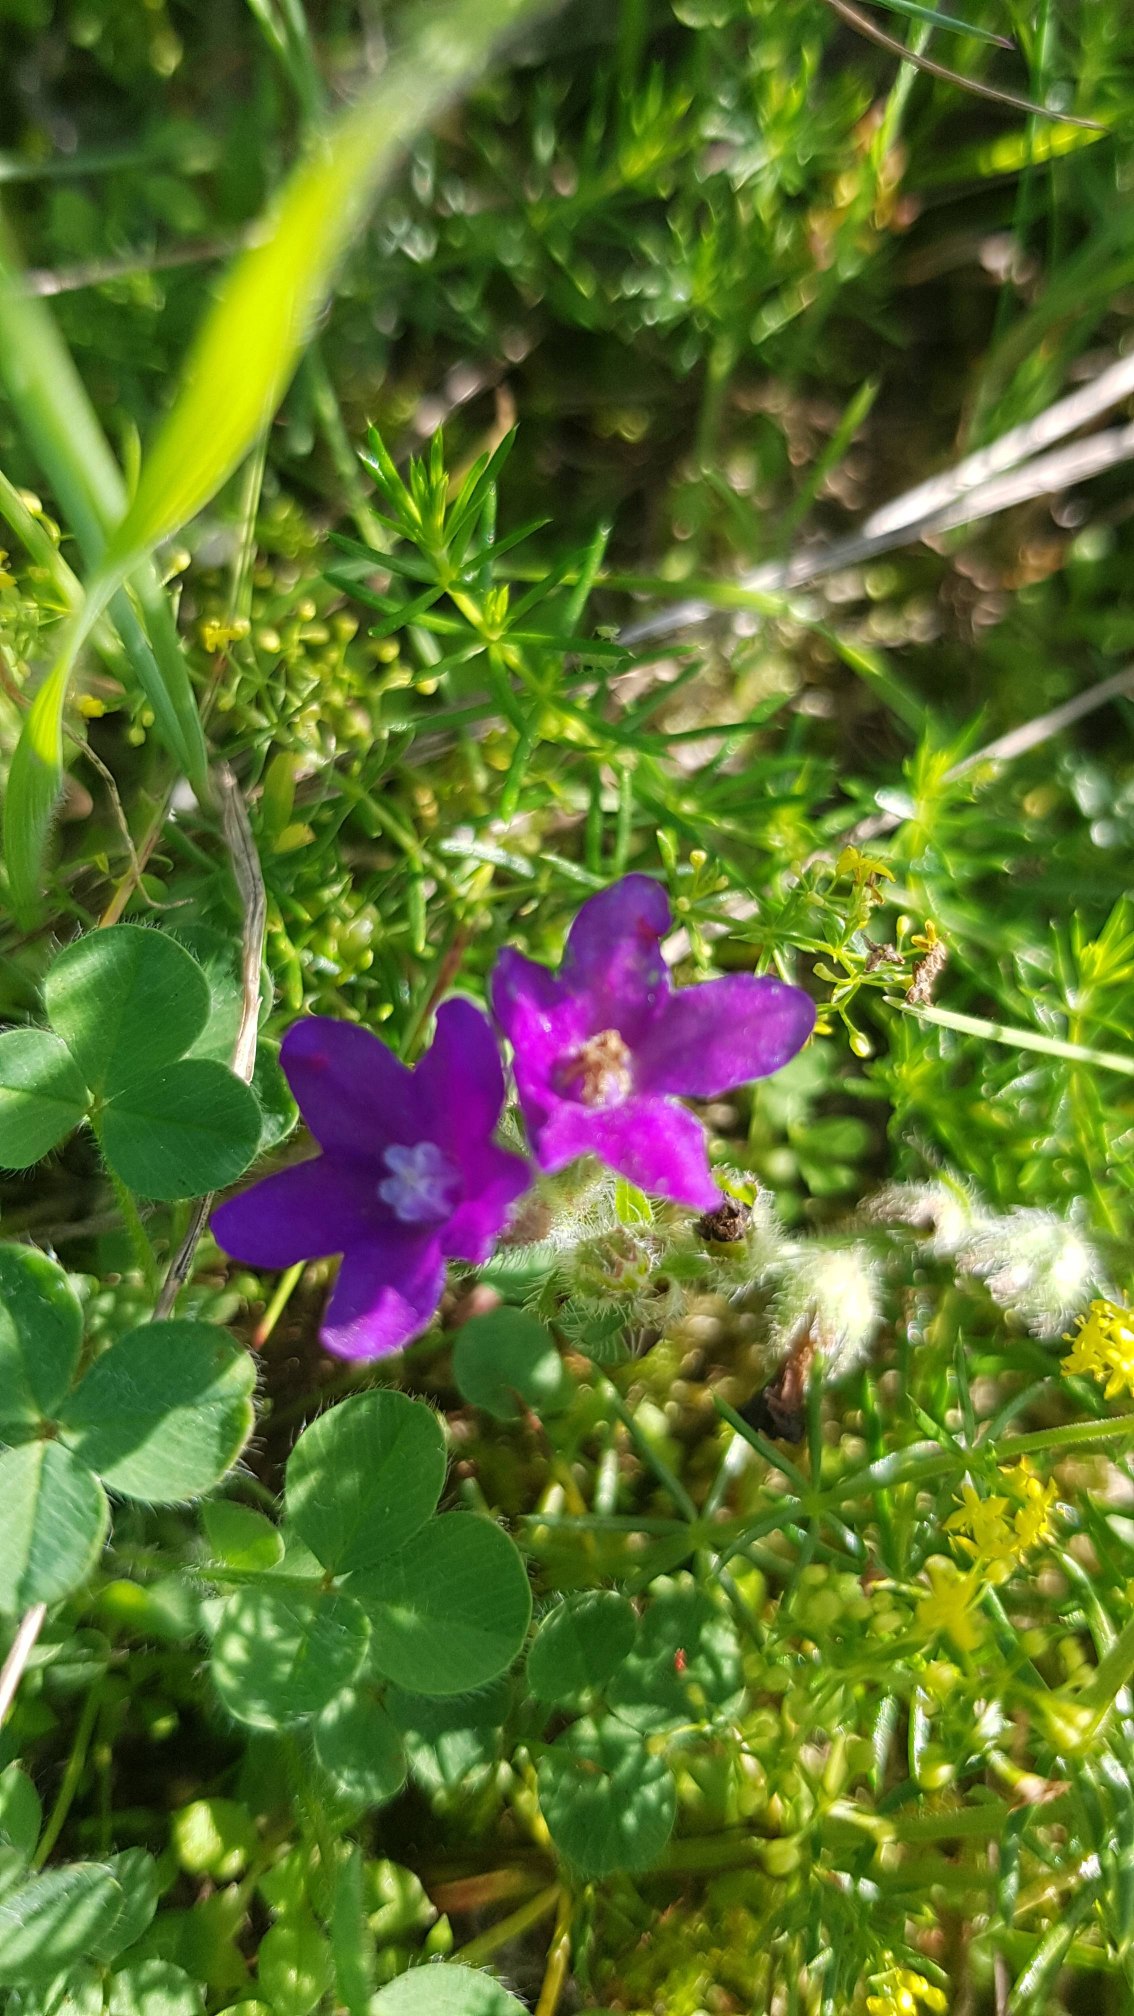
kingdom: Plantae
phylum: Tracheophyta
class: Magnoliopsida
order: Boraginales
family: Boraginaceae
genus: Anchusa
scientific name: Anchusa officinalis
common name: Læge-oksetunge
